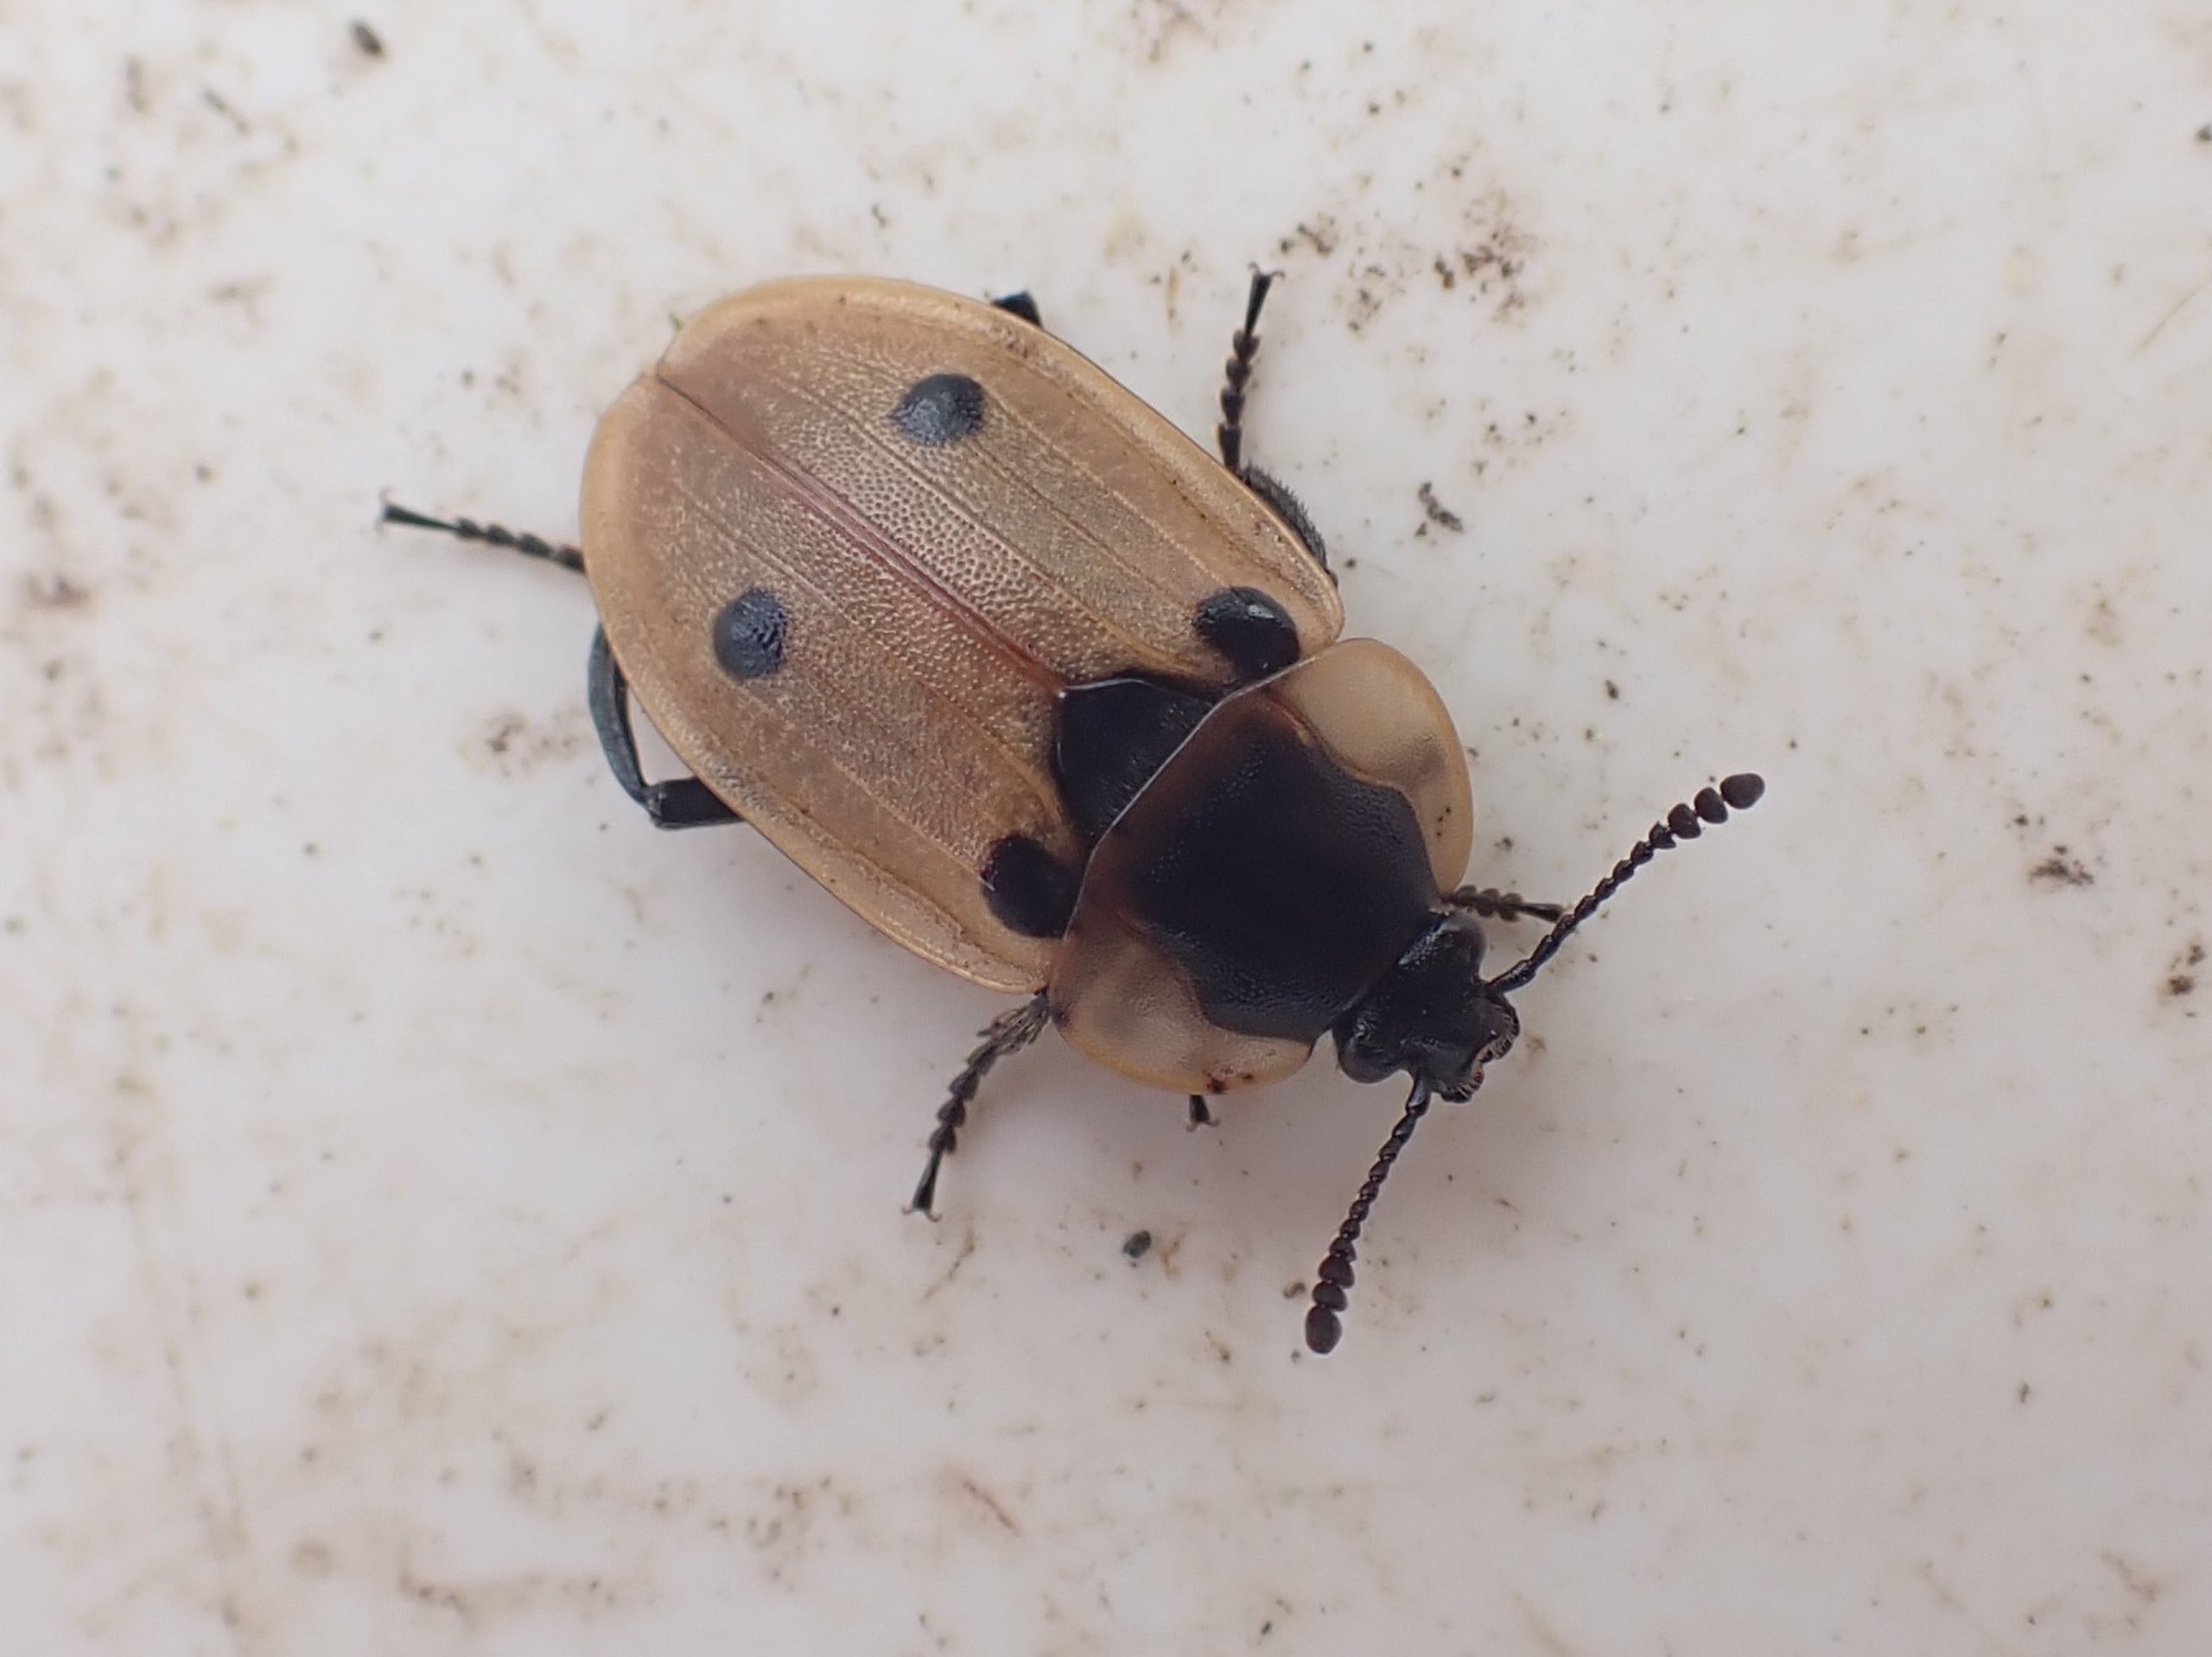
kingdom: Animalia
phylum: Arthropoda
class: Insecta
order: Coleoptera
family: Staphylinidae
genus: Dendroxena
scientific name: Dendroxena quadrimaculata
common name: Fireplettet ådselbille
